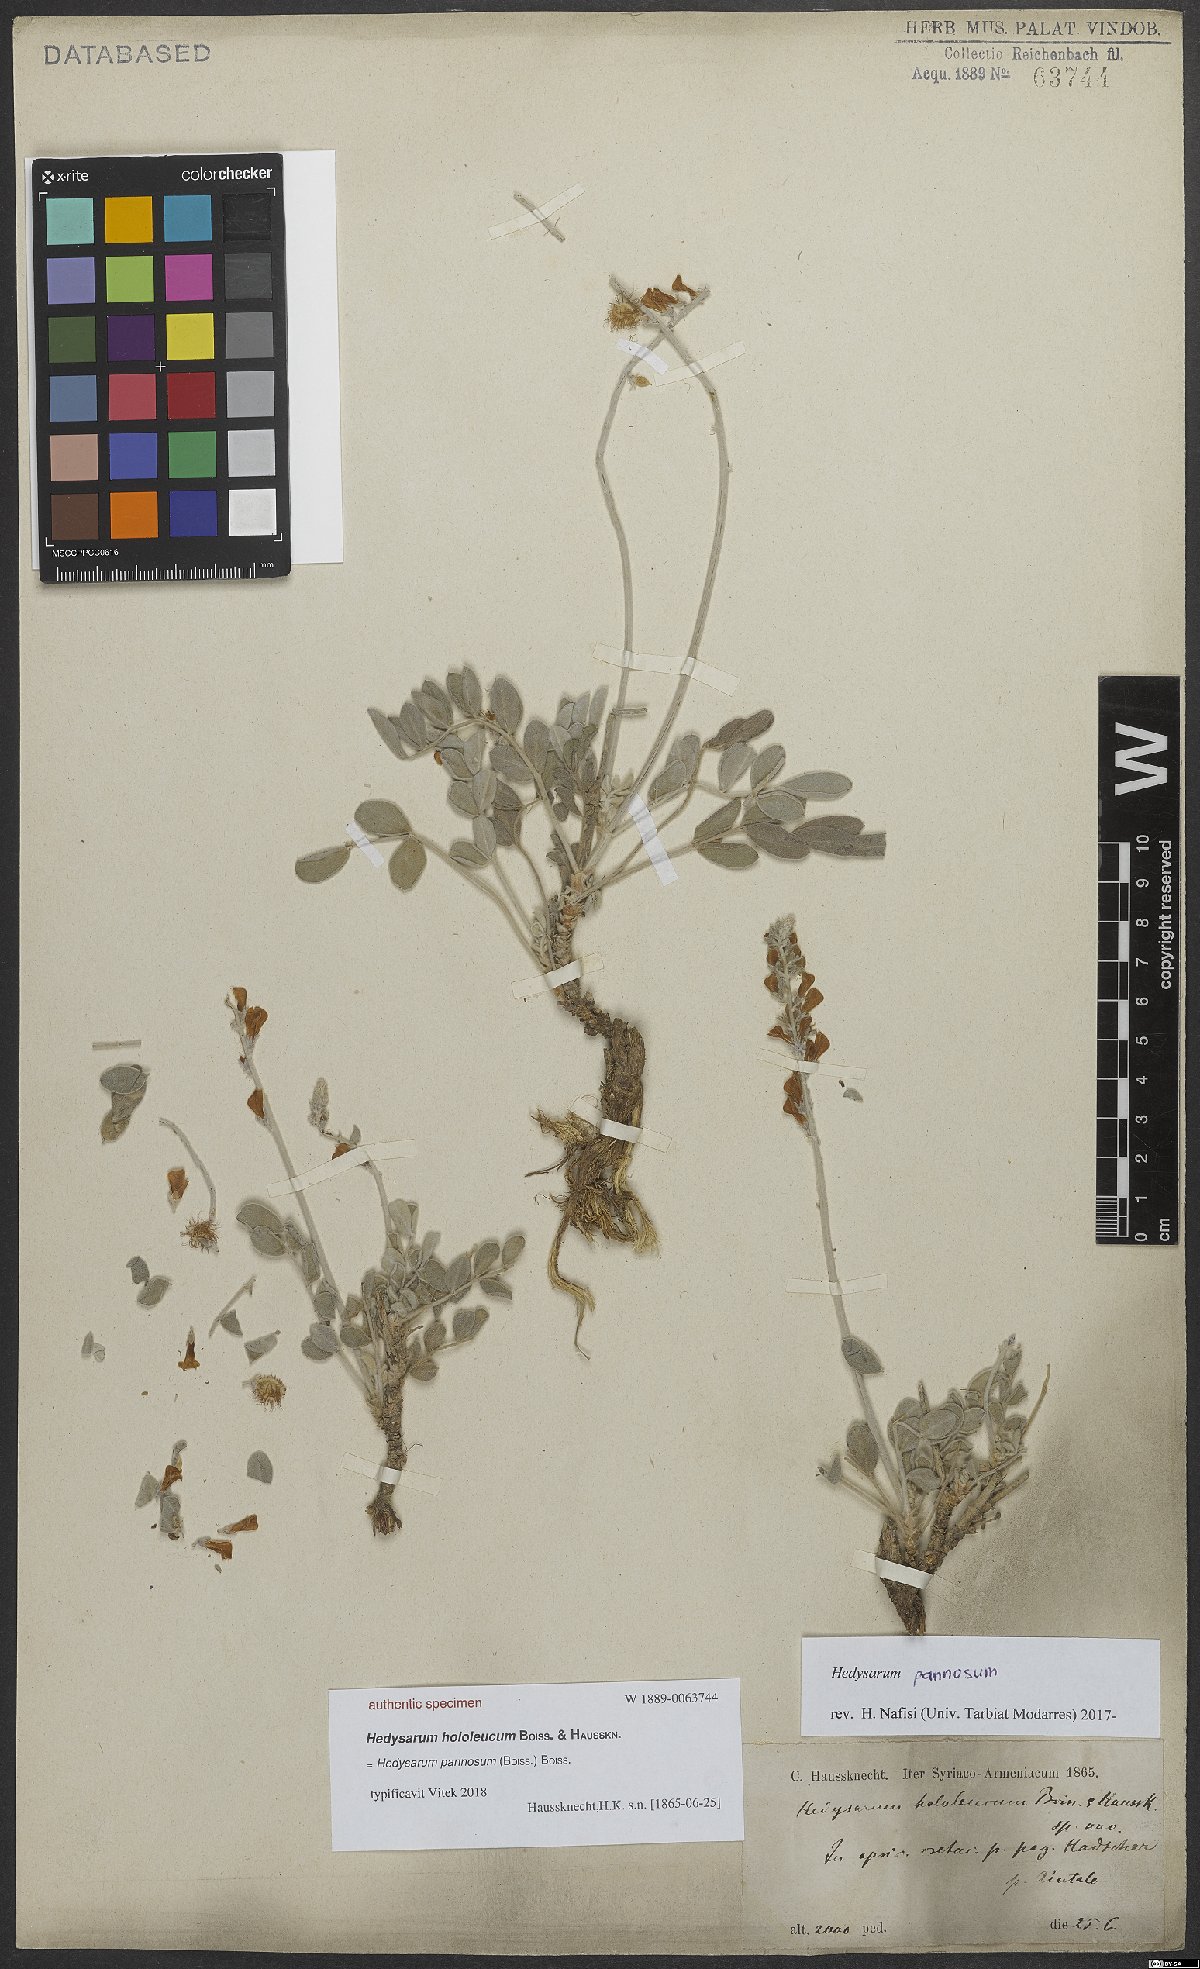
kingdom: Plantae
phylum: Tracheophyta
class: Magnoliopsida
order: Fabales
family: Fabaceae
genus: Hedysarum
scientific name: Hedysarum pannosum
